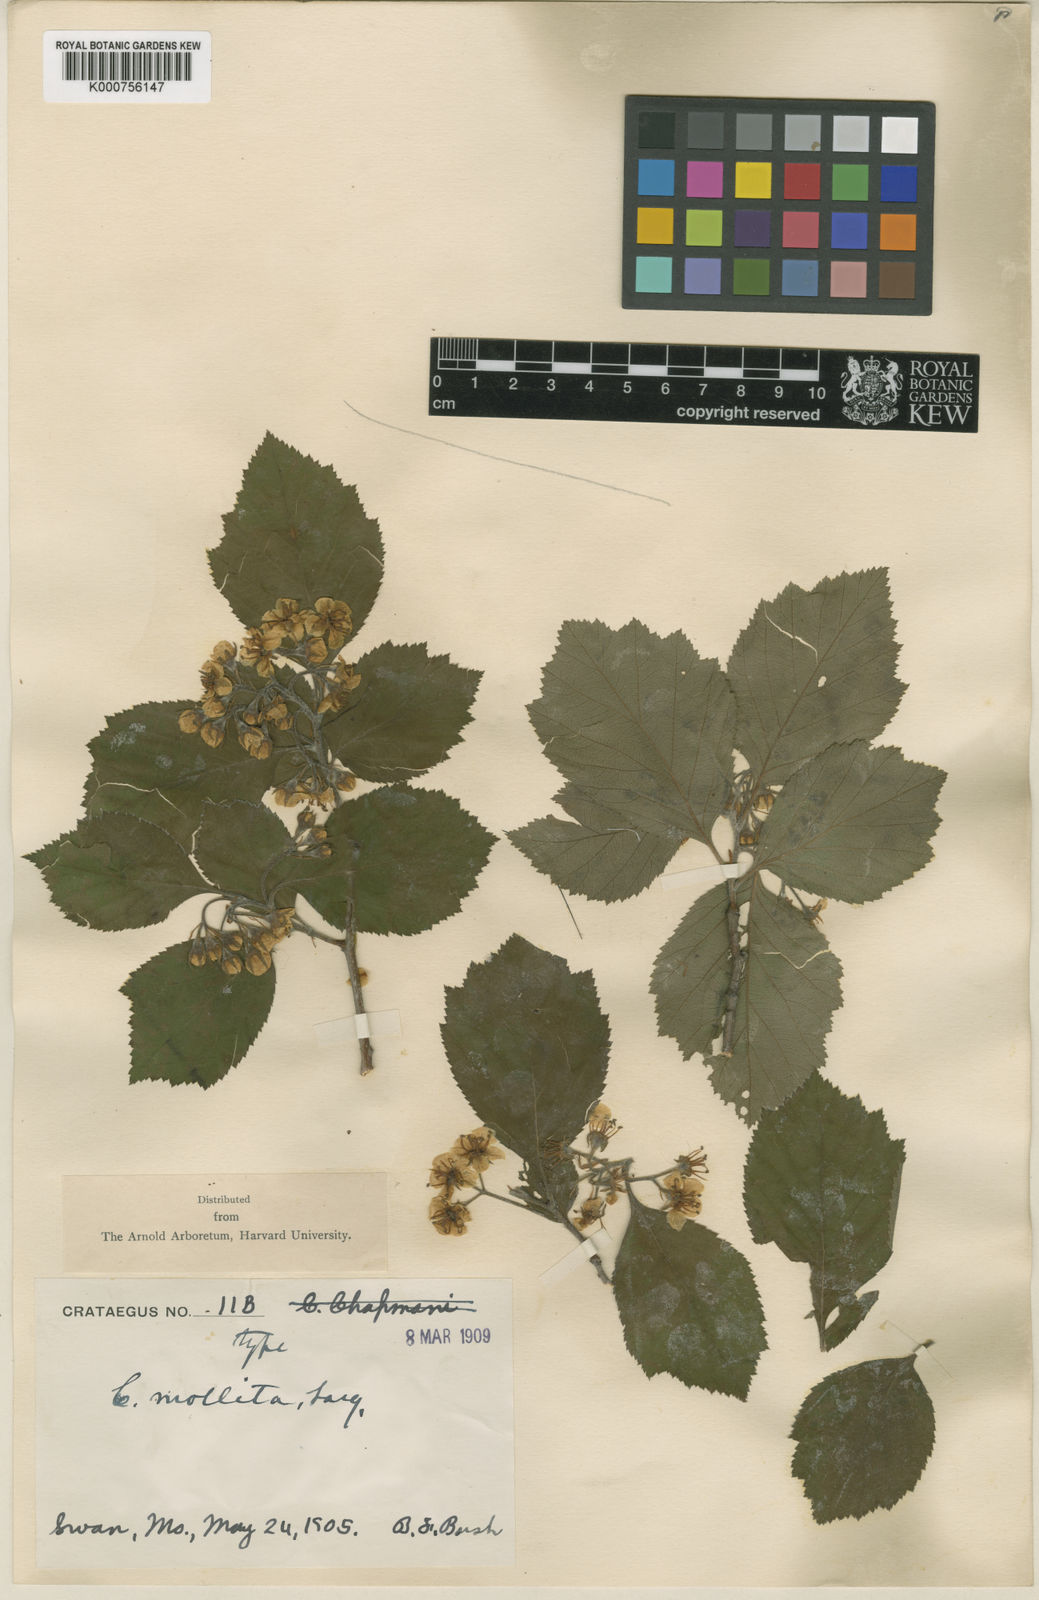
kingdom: Plantae
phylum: Tracheophyta
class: Magnoliopsida
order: Rosales
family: Rosaceae
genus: Crataegus
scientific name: Crataegus
